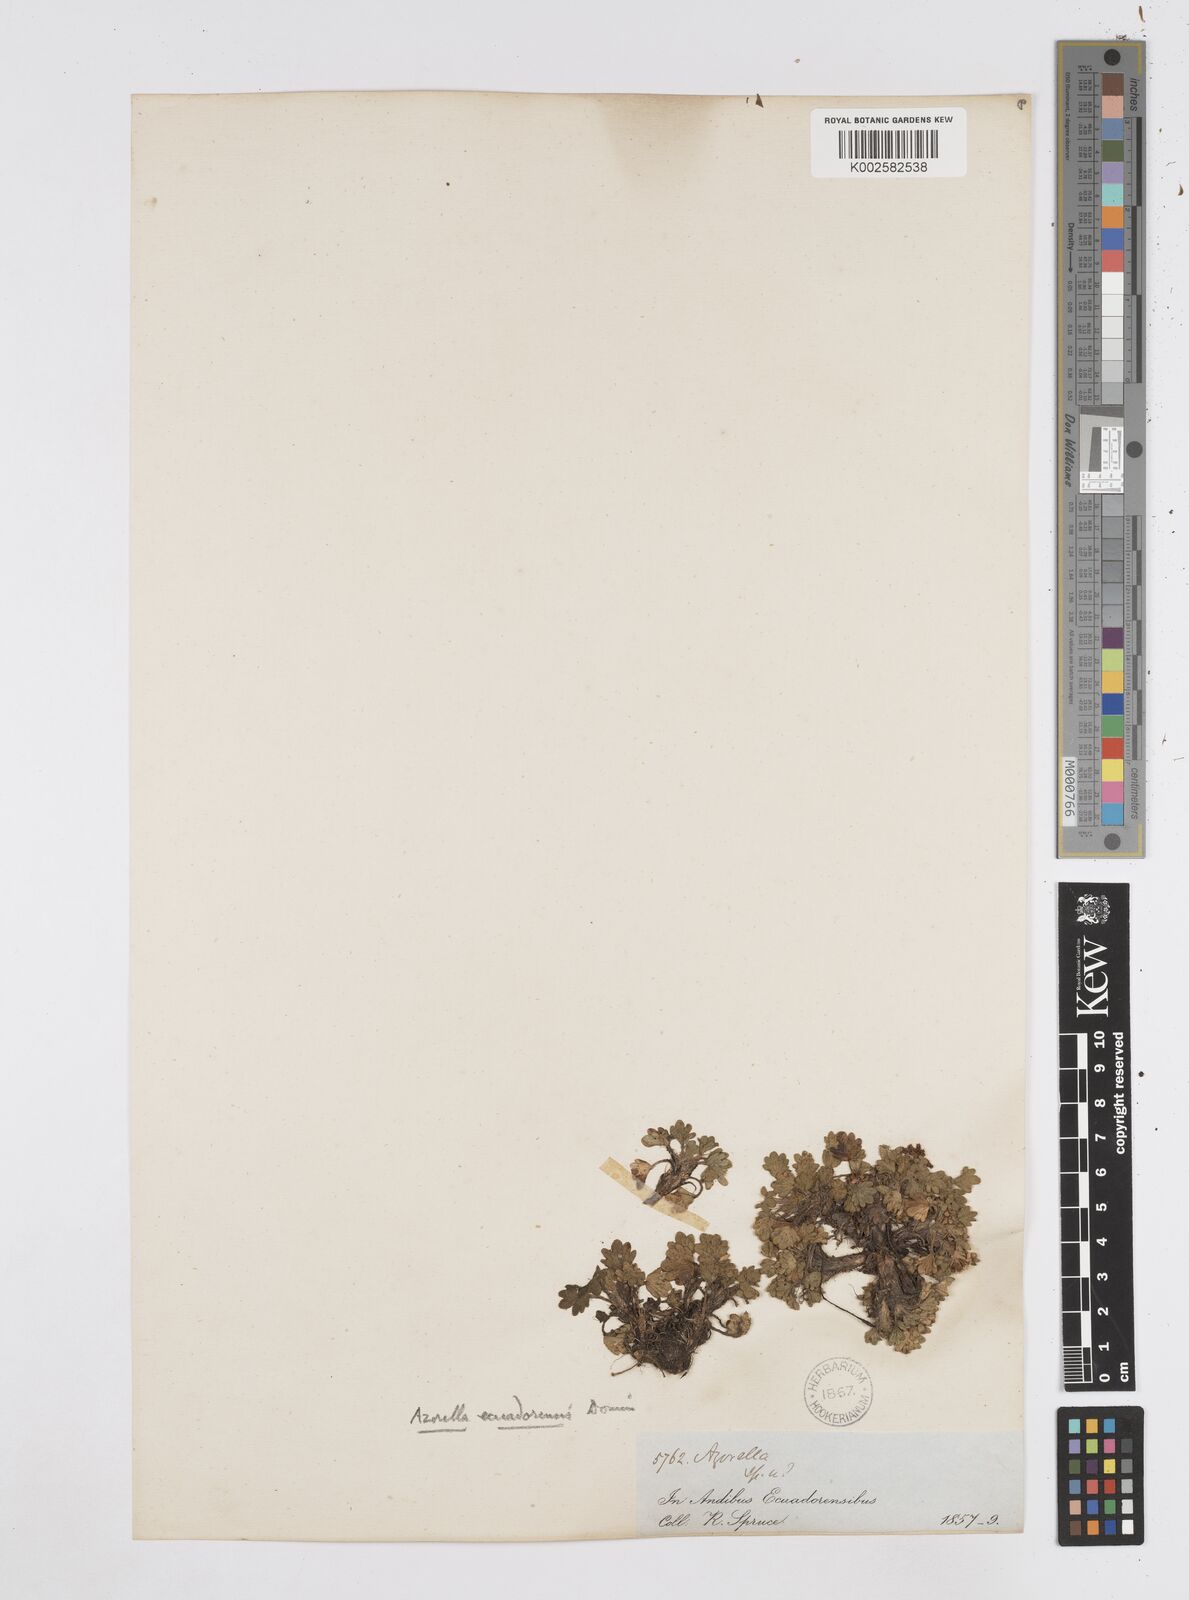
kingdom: Plantae
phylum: Tracheophyta
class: Magnoliopsida
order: Apiales
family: Apiaceae
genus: Azorella
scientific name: Azorella crenata
